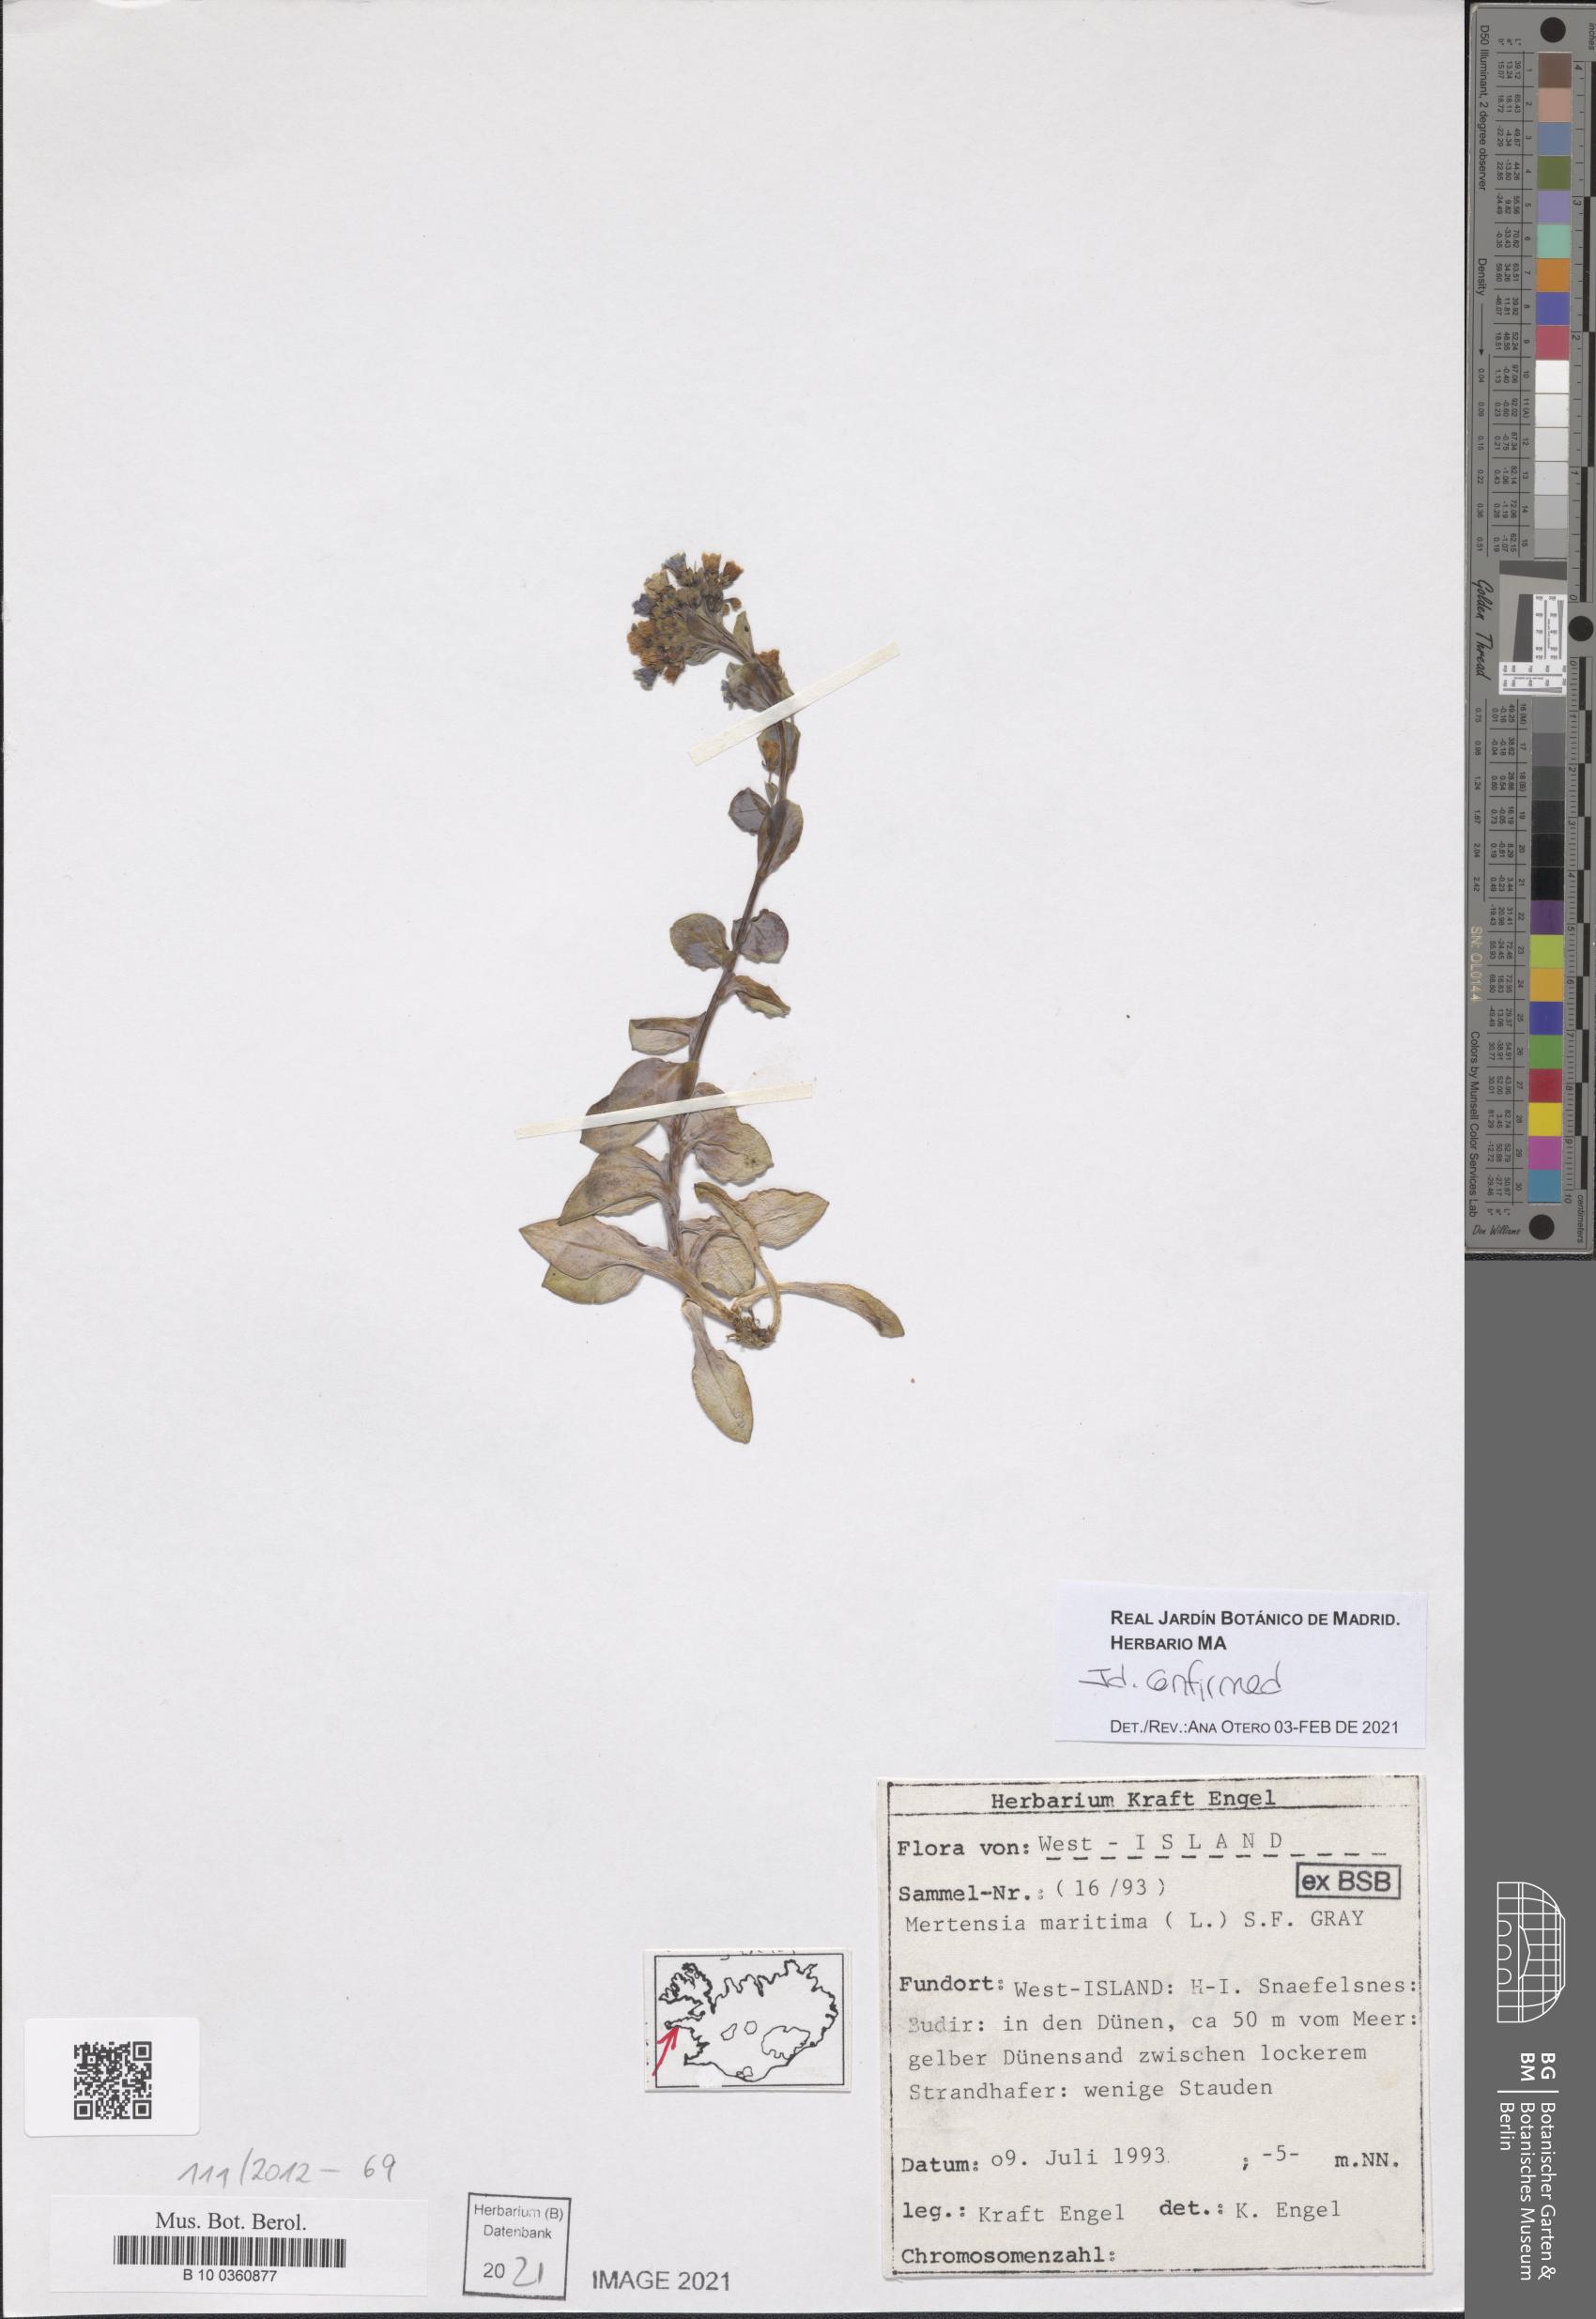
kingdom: Plantae
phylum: Tracheophyta
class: Magnoliopsida
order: Boraginales
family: Boraginaceae
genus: Mertensia
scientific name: Mertensia maritima
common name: Oysterplant
